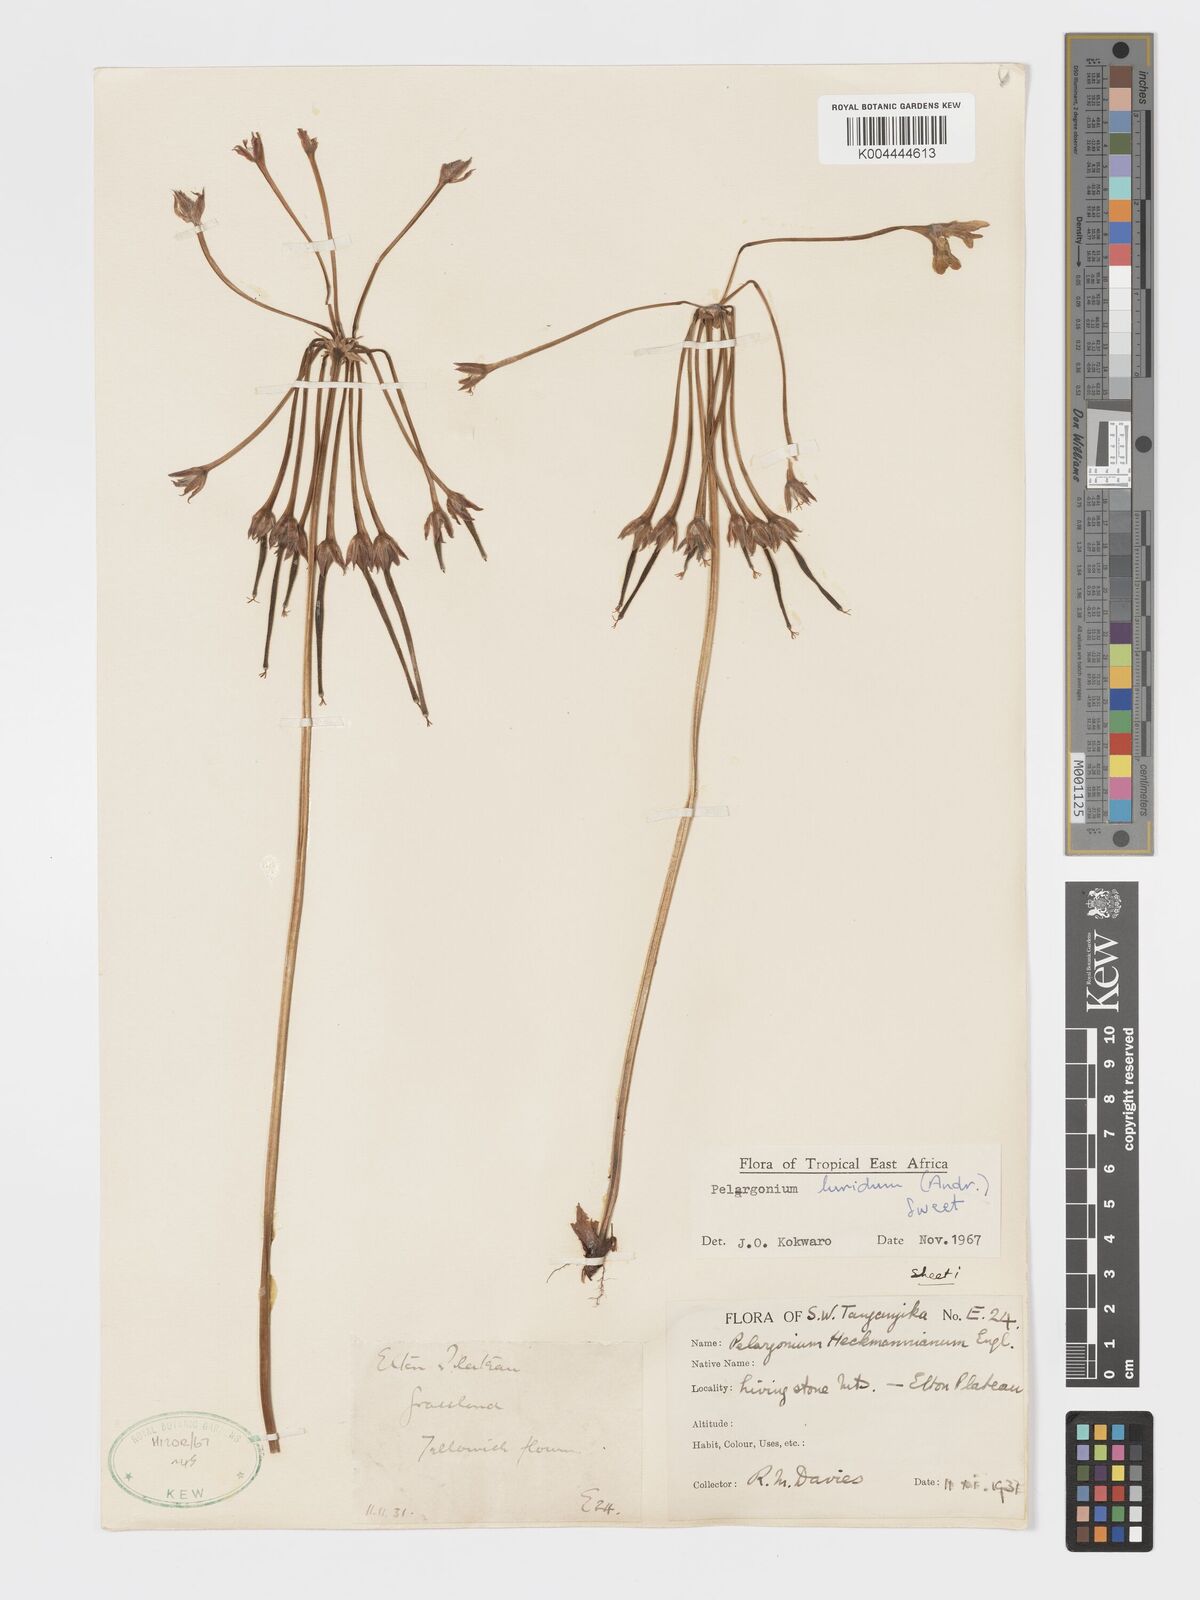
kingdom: Plantae
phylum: Tracheophyta
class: Magnoliopsida
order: Geraniales
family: Geraniaceae
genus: Pelargonium
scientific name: Pelargonium luridum
